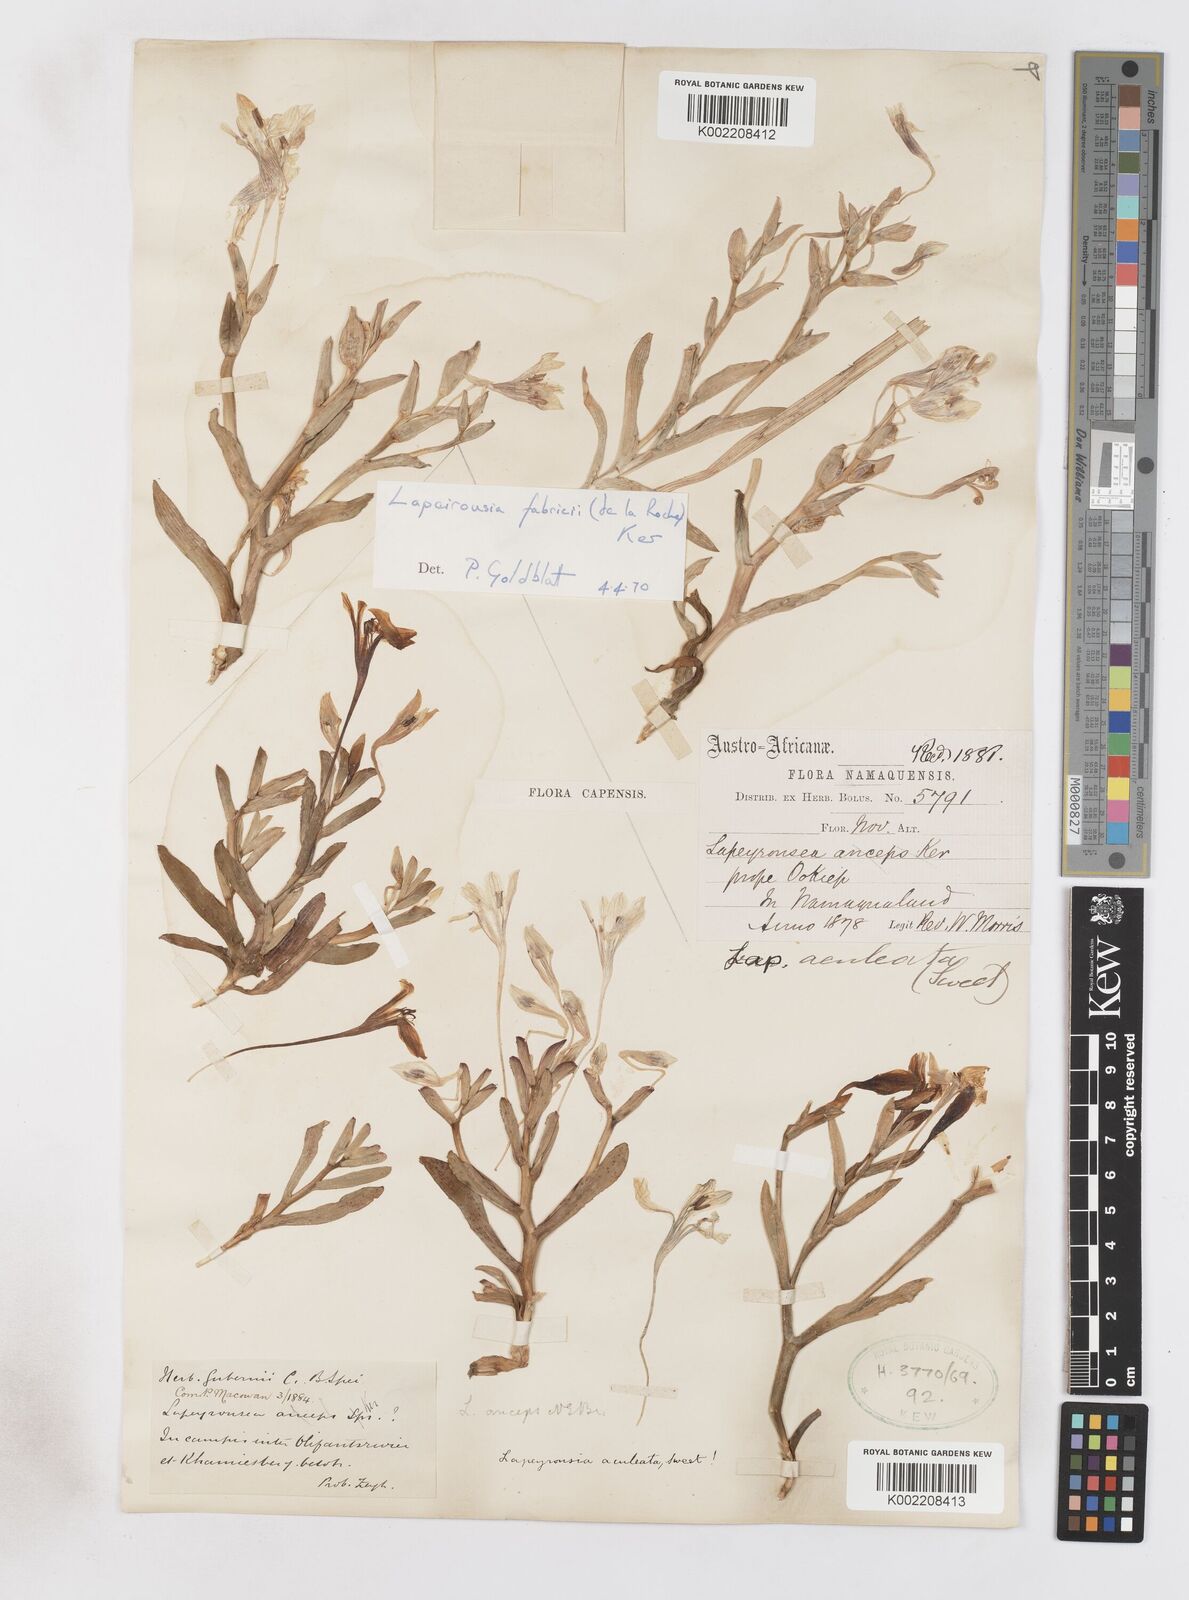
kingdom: Plantae
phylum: Tracheophyta
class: Liliopsida
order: Asparagales
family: Iridaceae
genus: Lapeirousia
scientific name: Lapeirousia fabricii
